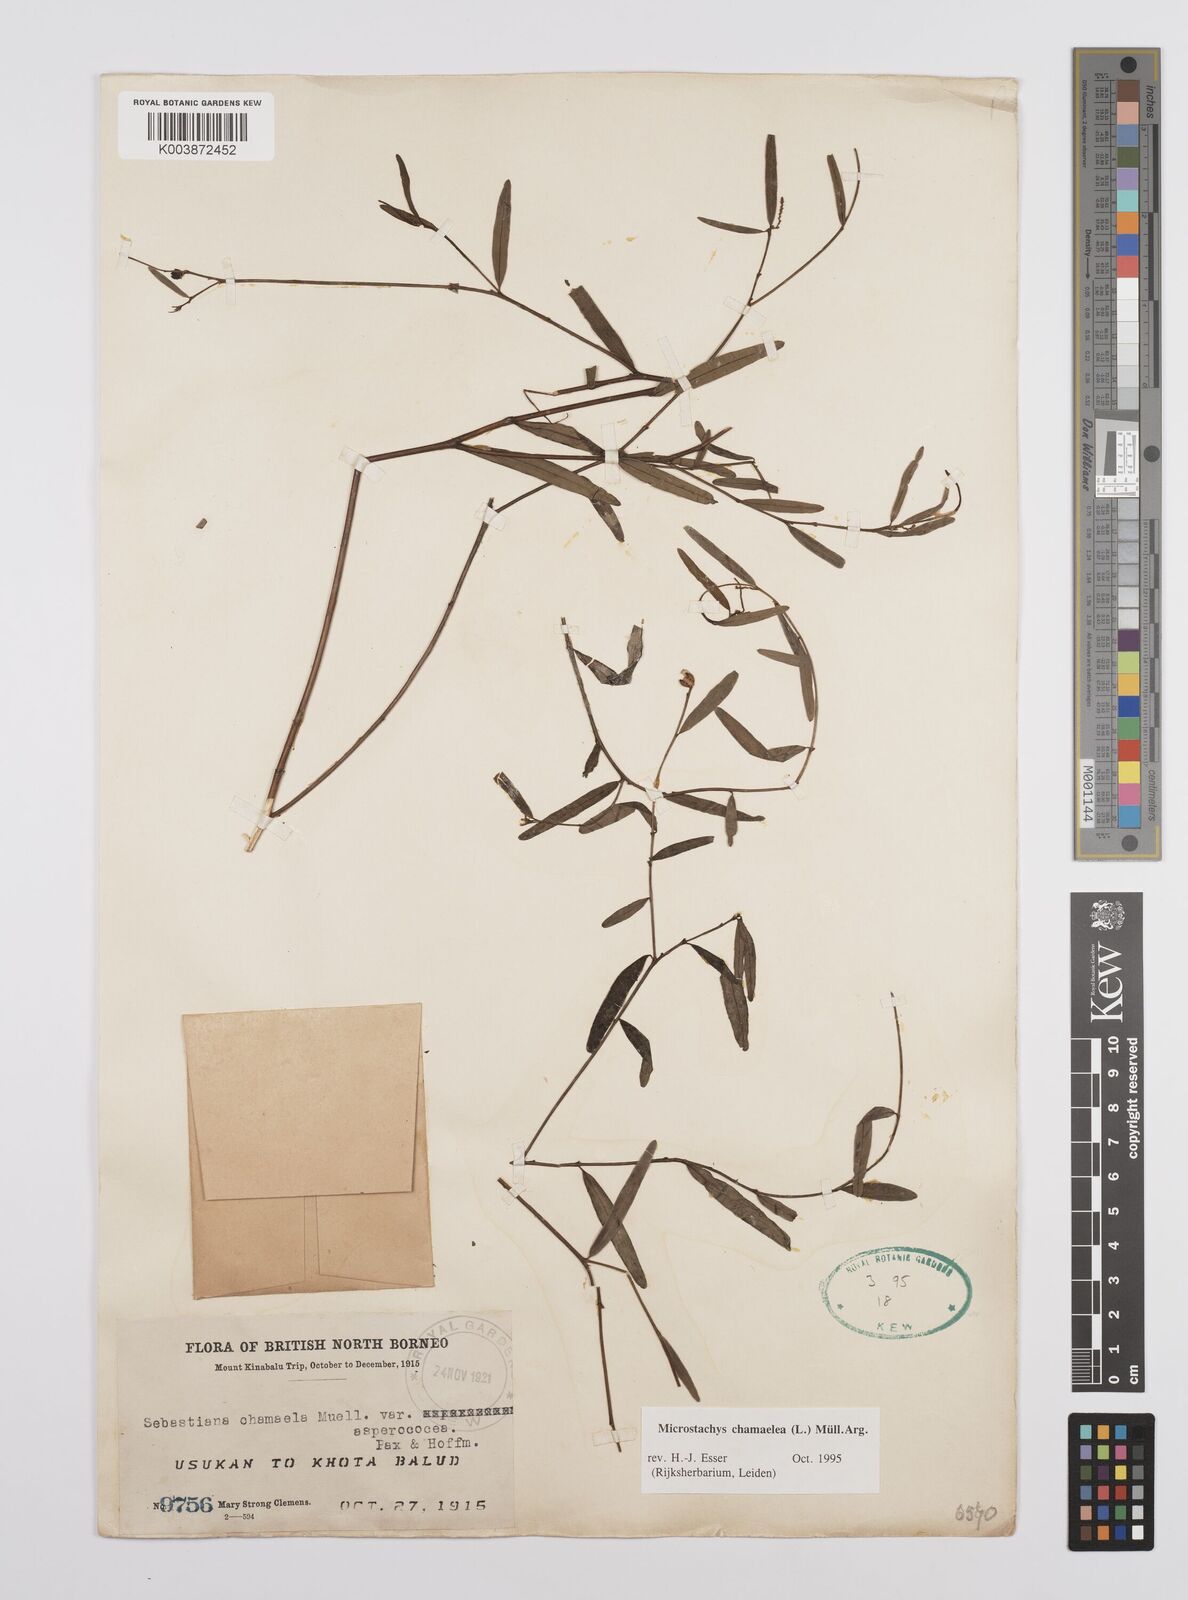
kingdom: Plantae
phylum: Tracheophyta
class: Magnoliopsida
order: Malpighiales
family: Euphorbiaceae
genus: Microstachys
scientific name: Microstachys chamaelea
